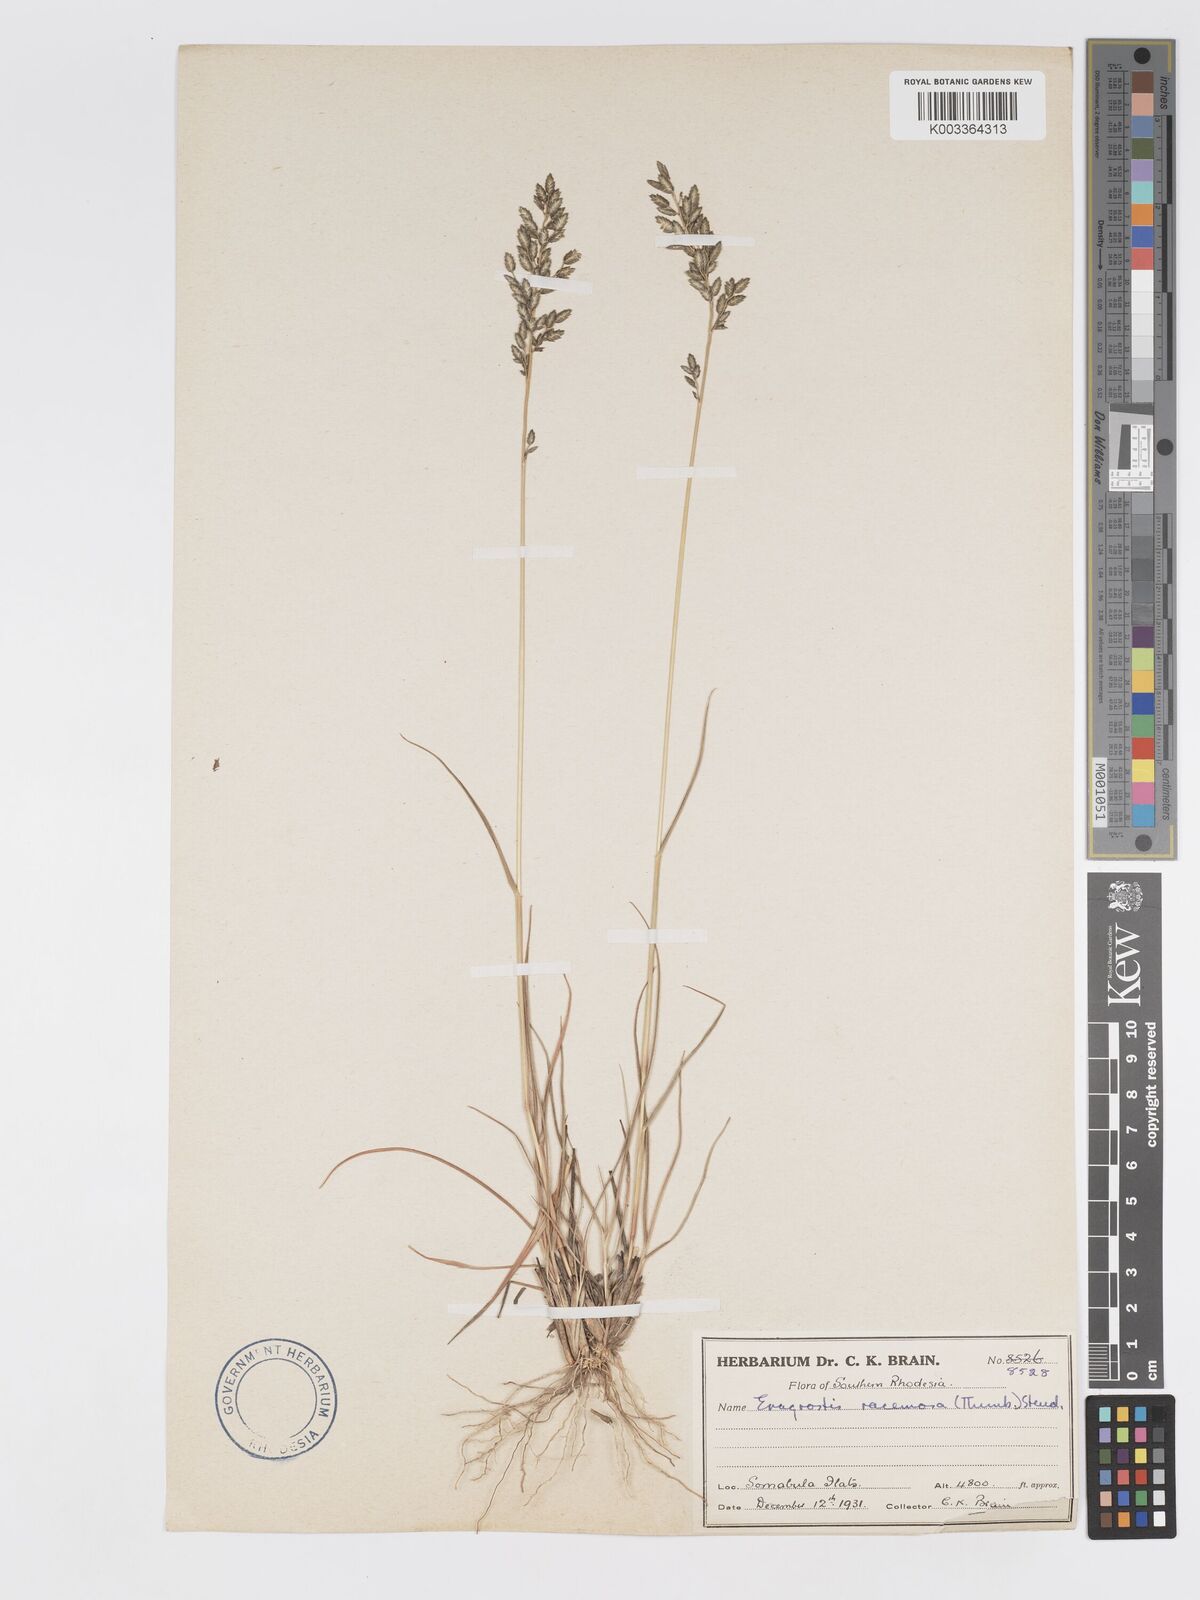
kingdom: Plantae
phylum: Tracheophyta
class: Liliopsida
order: Poales
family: Poaceae
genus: Eragrostis
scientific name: Eragrostis racemosa
